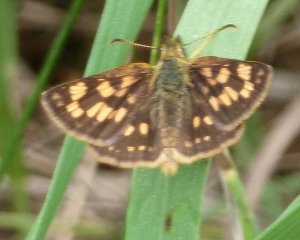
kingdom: Animalia
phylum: Arthropoda
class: Insecta
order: Lepidoptera
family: Hesperiidae
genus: Carterocephalus
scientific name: Carterocephalus palaemon
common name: Chequered Skipper
